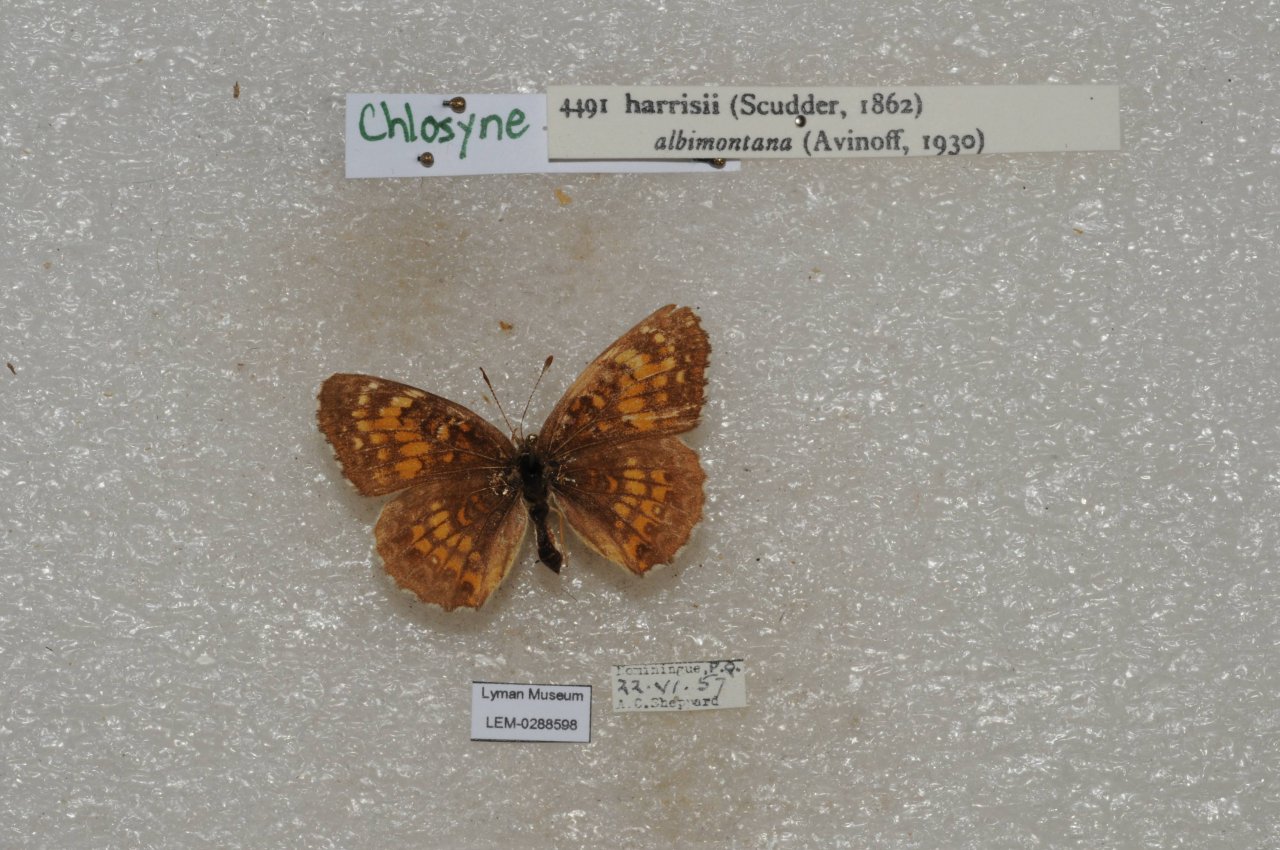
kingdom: Animalia
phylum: Arthropoda
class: Insecta
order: Lepidoptera
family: Nymphalidae
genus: Chlosyne
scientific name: Chlosyne harrisii
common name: Harris's Checkerspot
